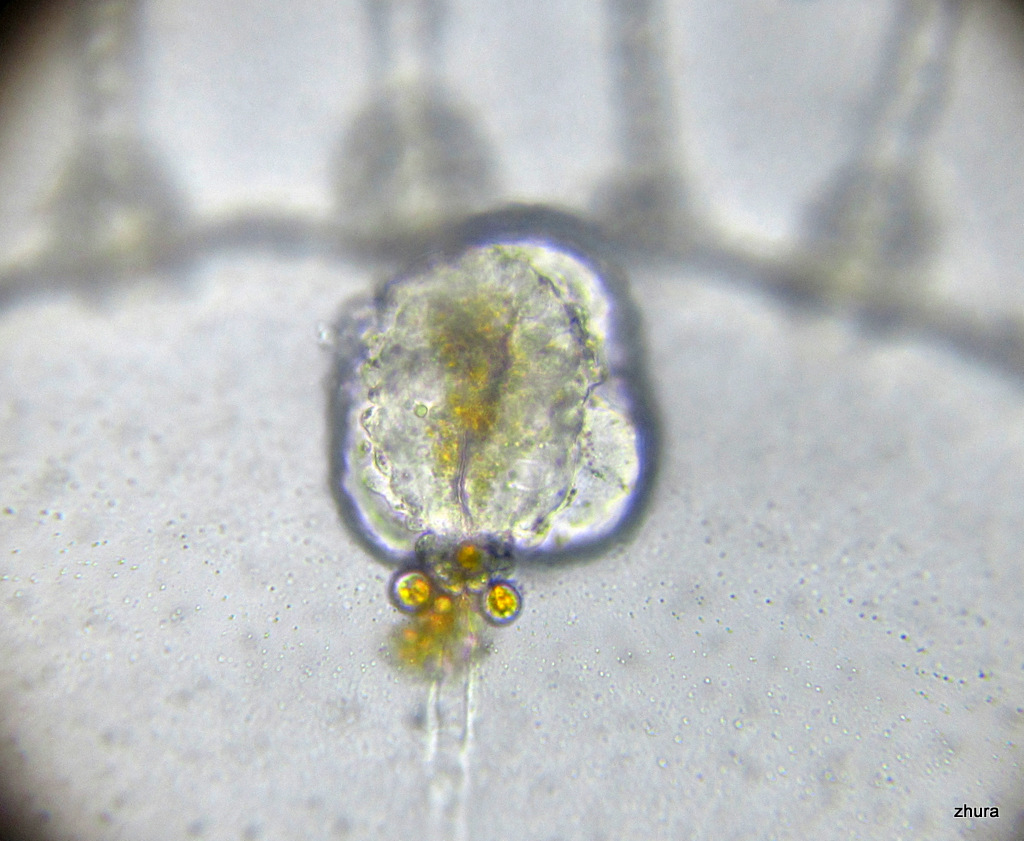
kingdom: Animalia
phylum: Cnidaria
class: Hydrozoa
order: Leptothecata
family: Campanulariidae
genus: Obelia
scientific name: Obelia longissima
